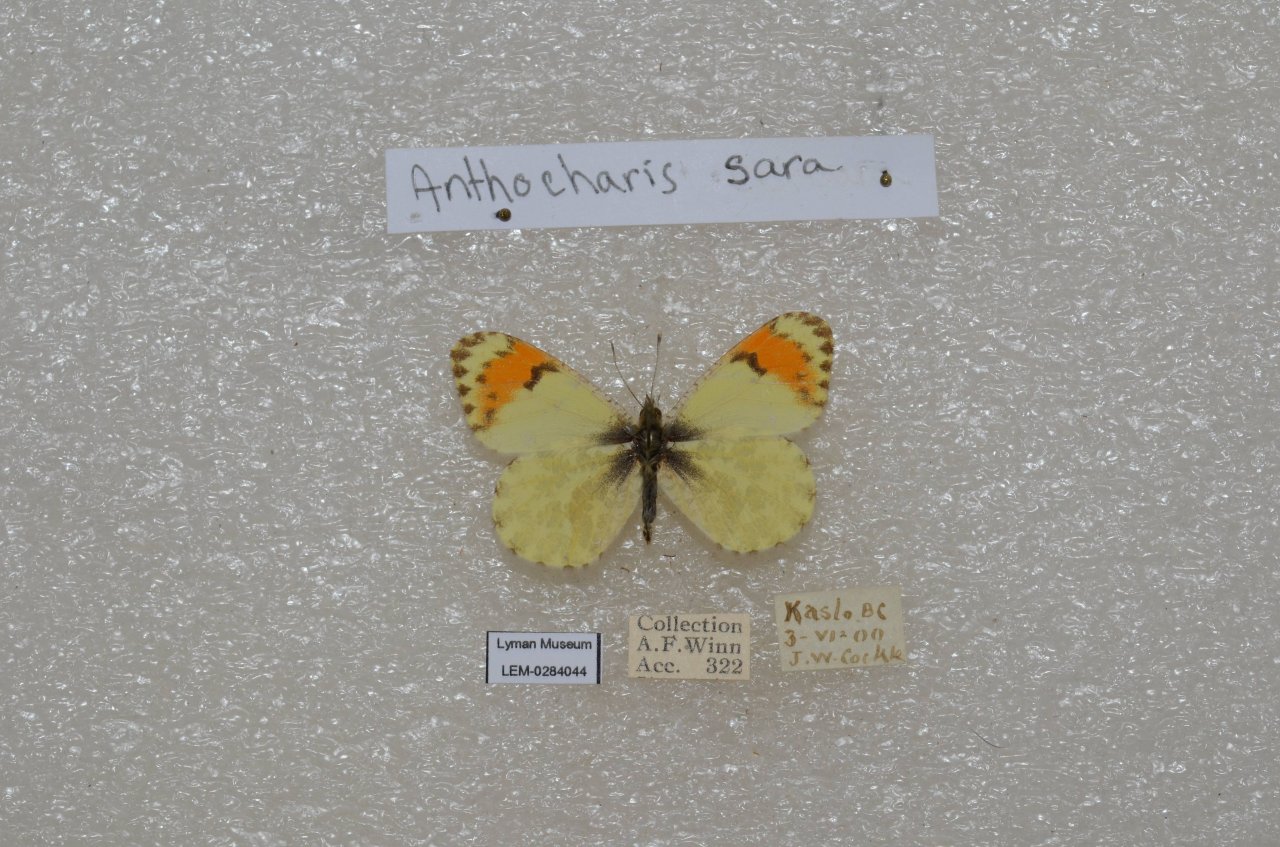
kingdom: Animalia
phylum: Arthropoda
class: Insecta
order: Lepidoptera
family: Pieridae
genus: Anthocharis
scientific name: Anthocharis sara
